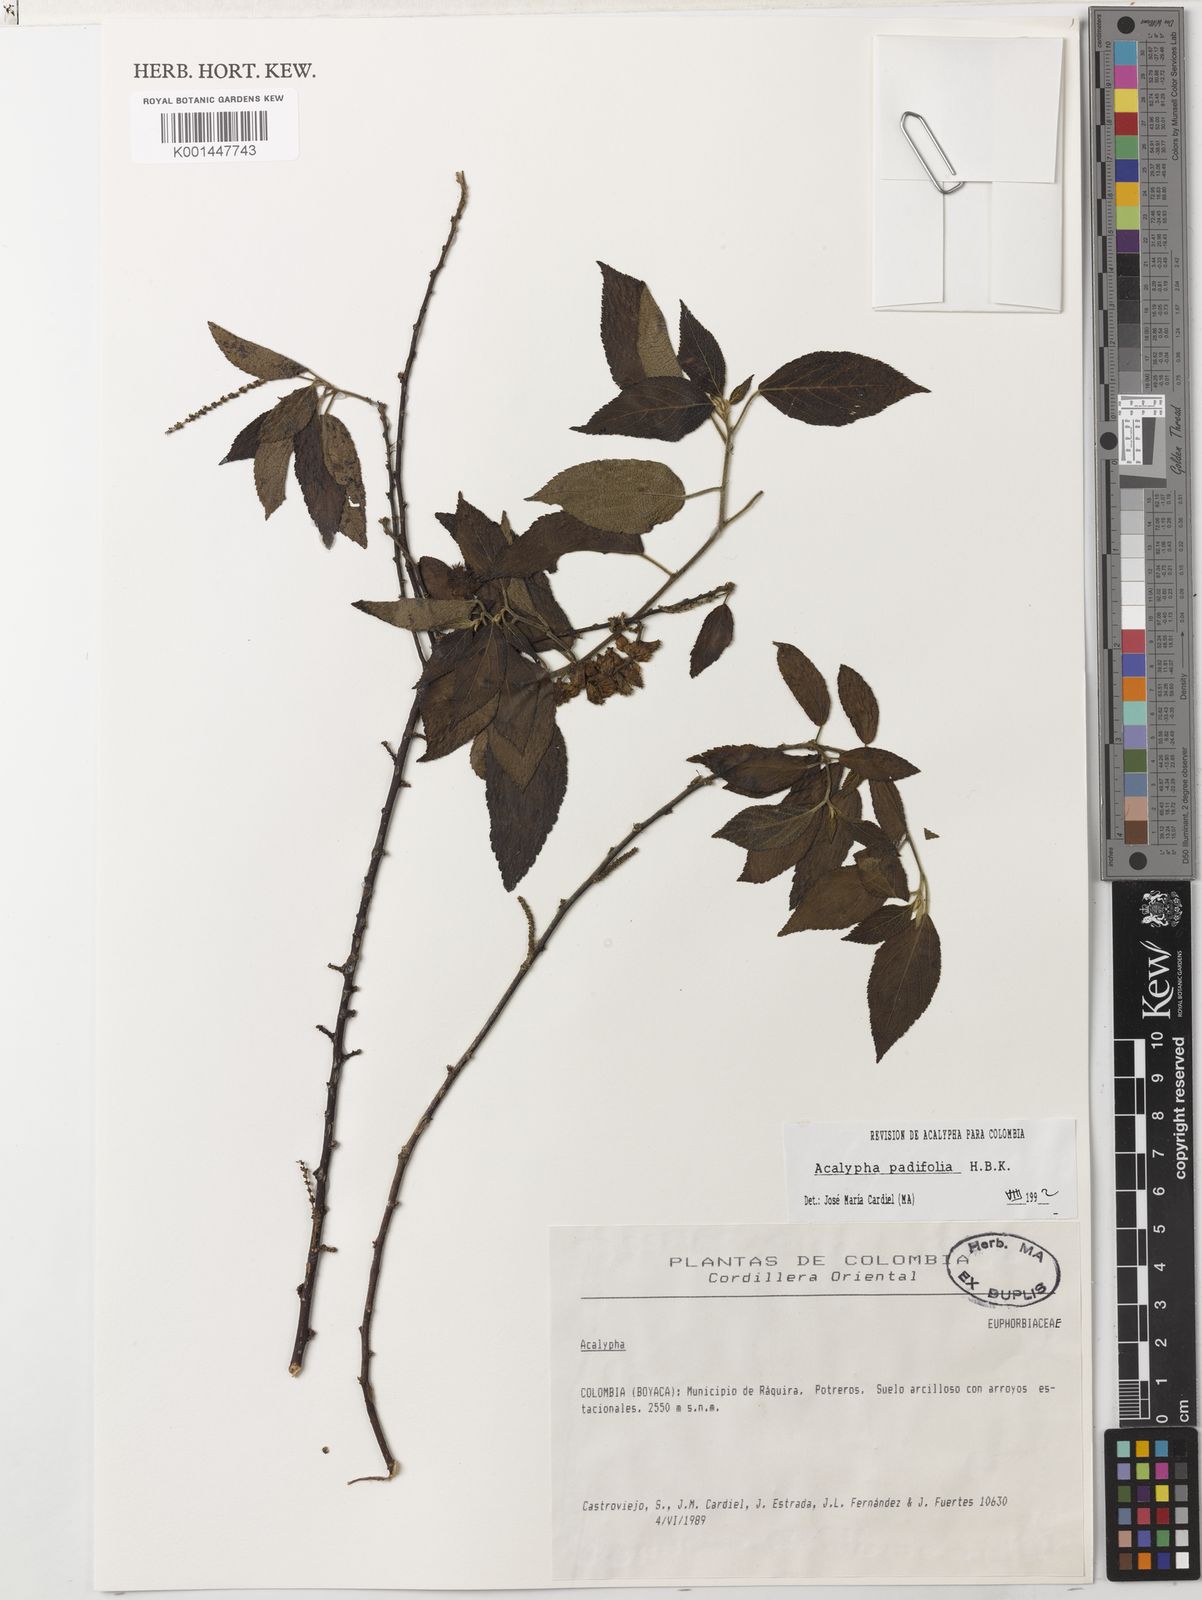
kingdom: Plantae
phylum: Tracheophyta
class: Magnoliopsida
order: Malpighiales
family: Euphorbiaceae
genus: Acalypha
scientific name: Acalypha padifolia
